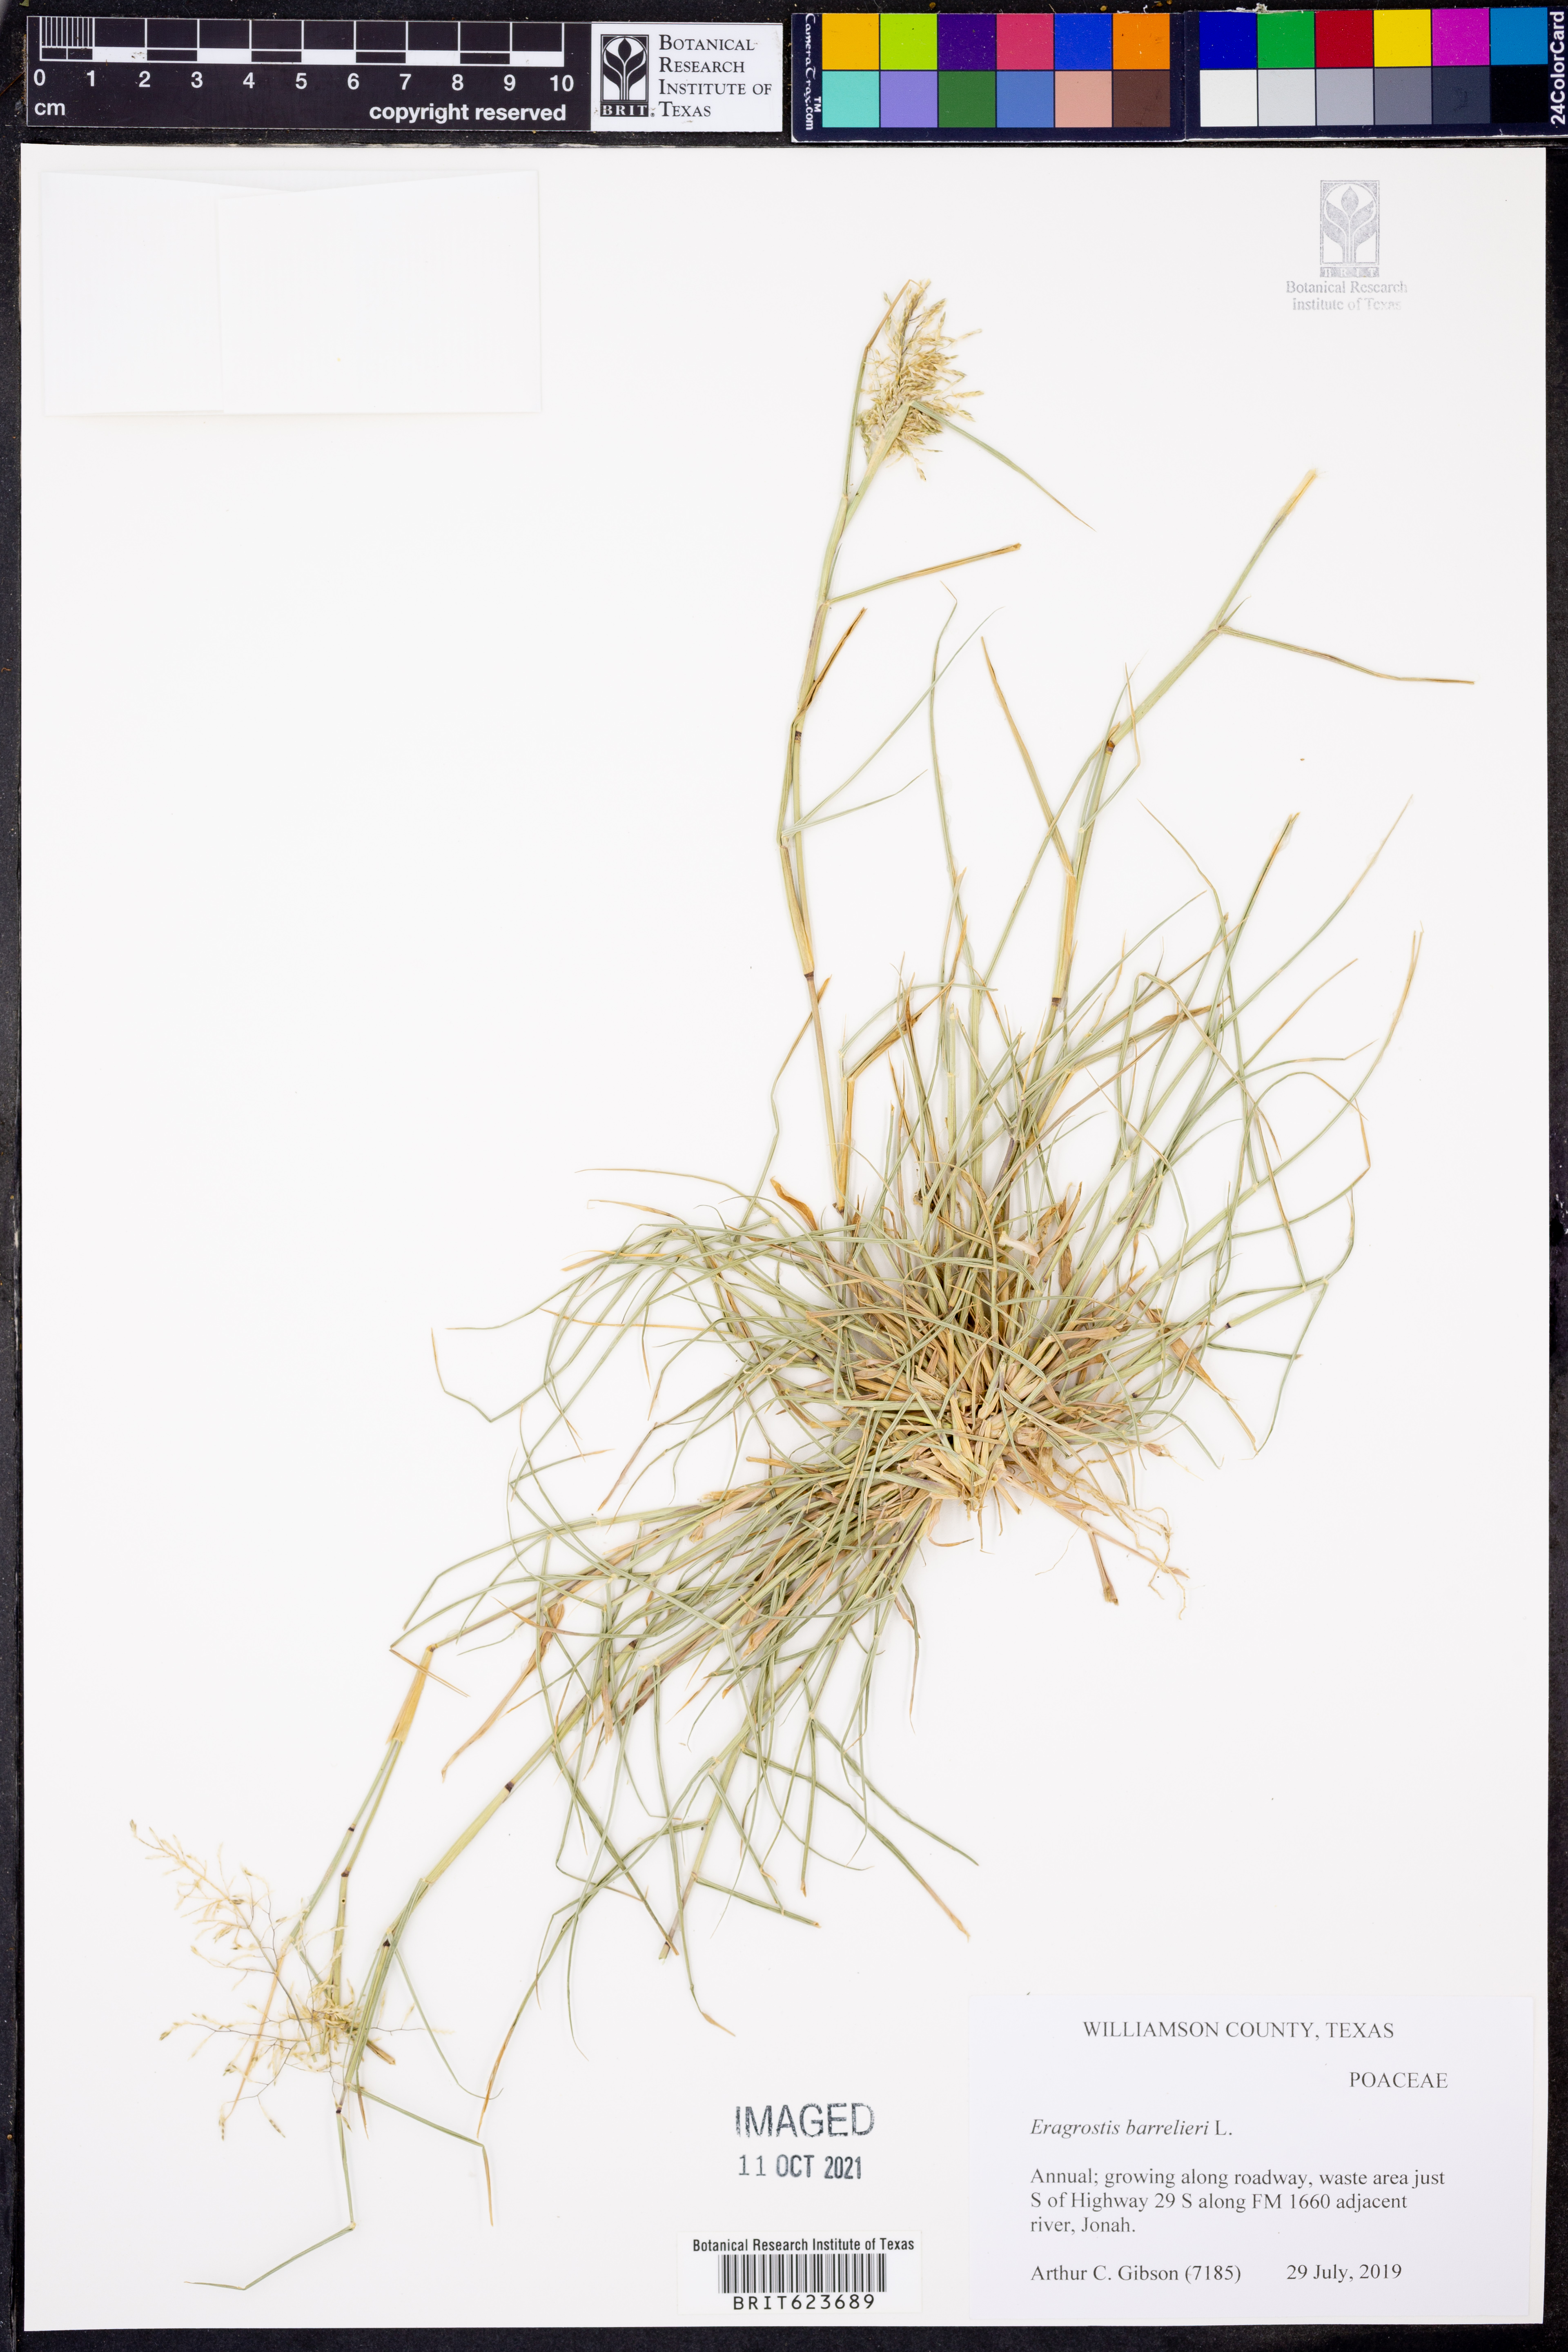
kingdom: Plantae
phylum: Tracheophyta
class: Liliopsida
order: Poales
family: Poaceae
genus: Eragrostis
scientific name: Eragrostis barrelieri
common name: Mediterranean lovegrass
